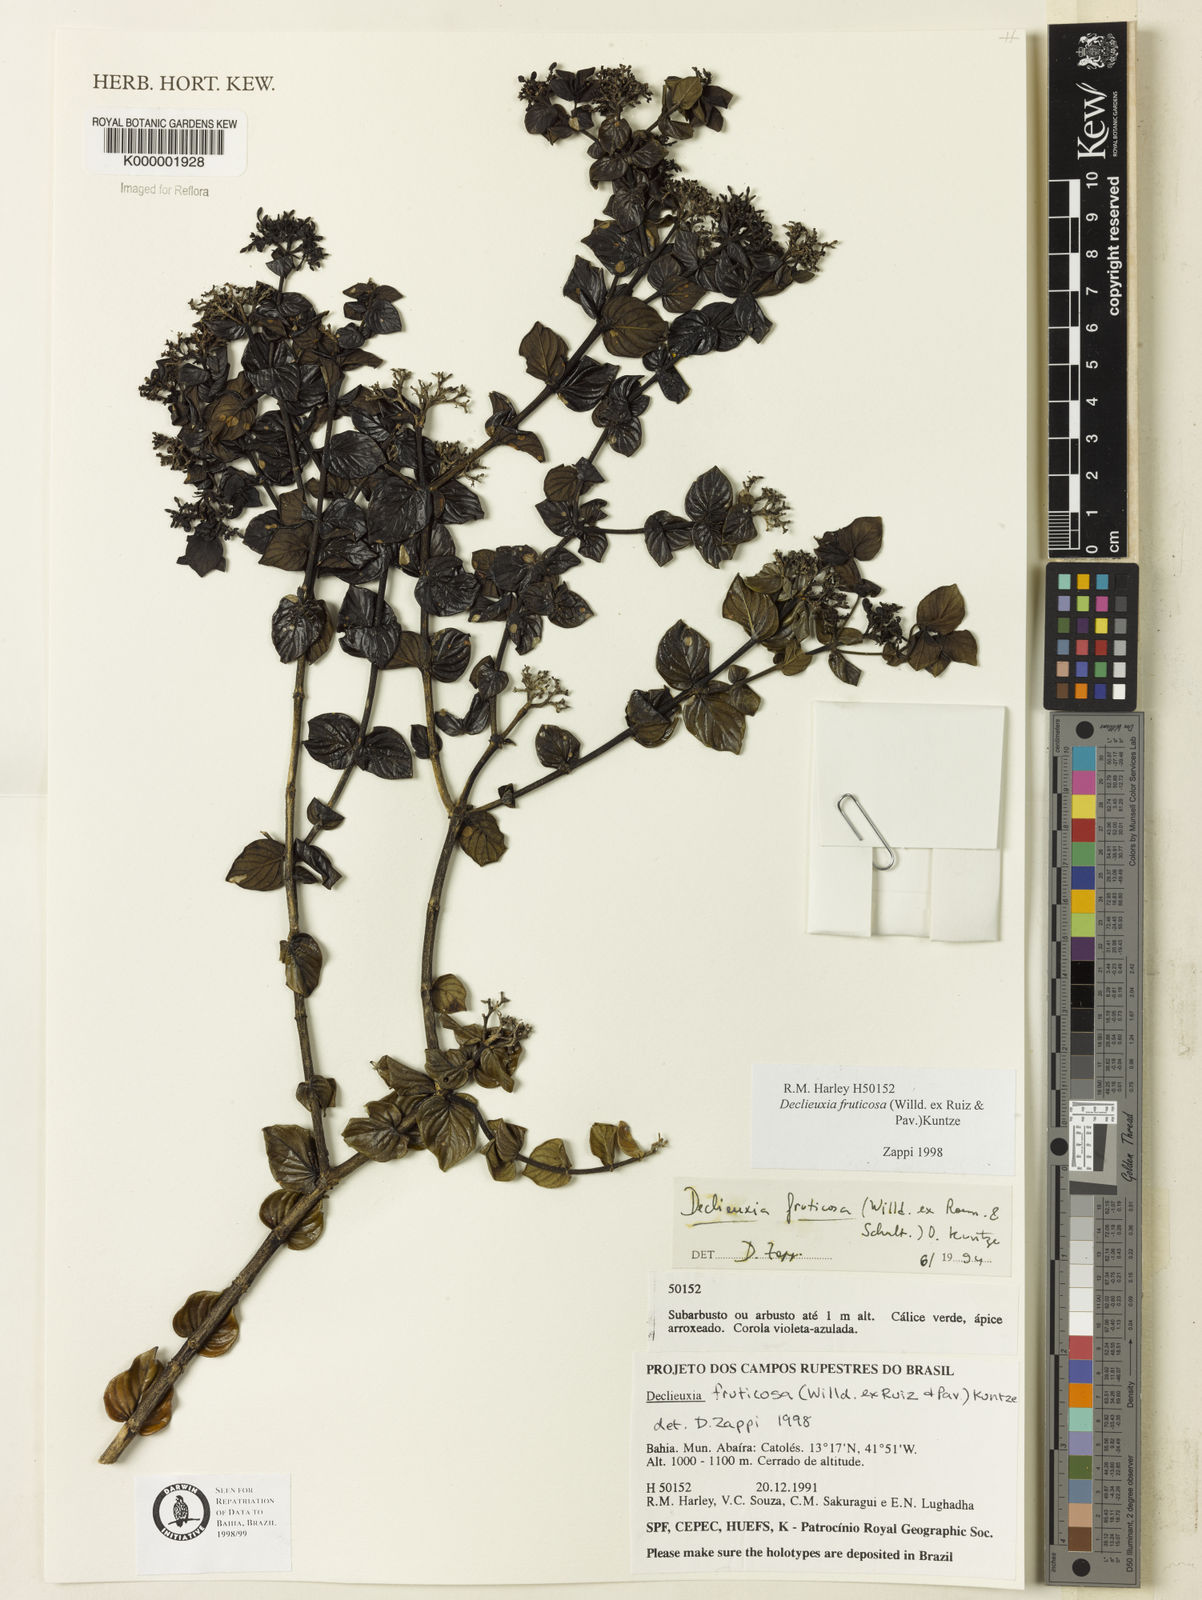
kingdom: Plantae
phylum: Tracheophyta
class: Magnoliopsida
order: Gentianales
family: Rubiaceae
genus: Declieuxia
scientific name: Declieuxia fruticosa
